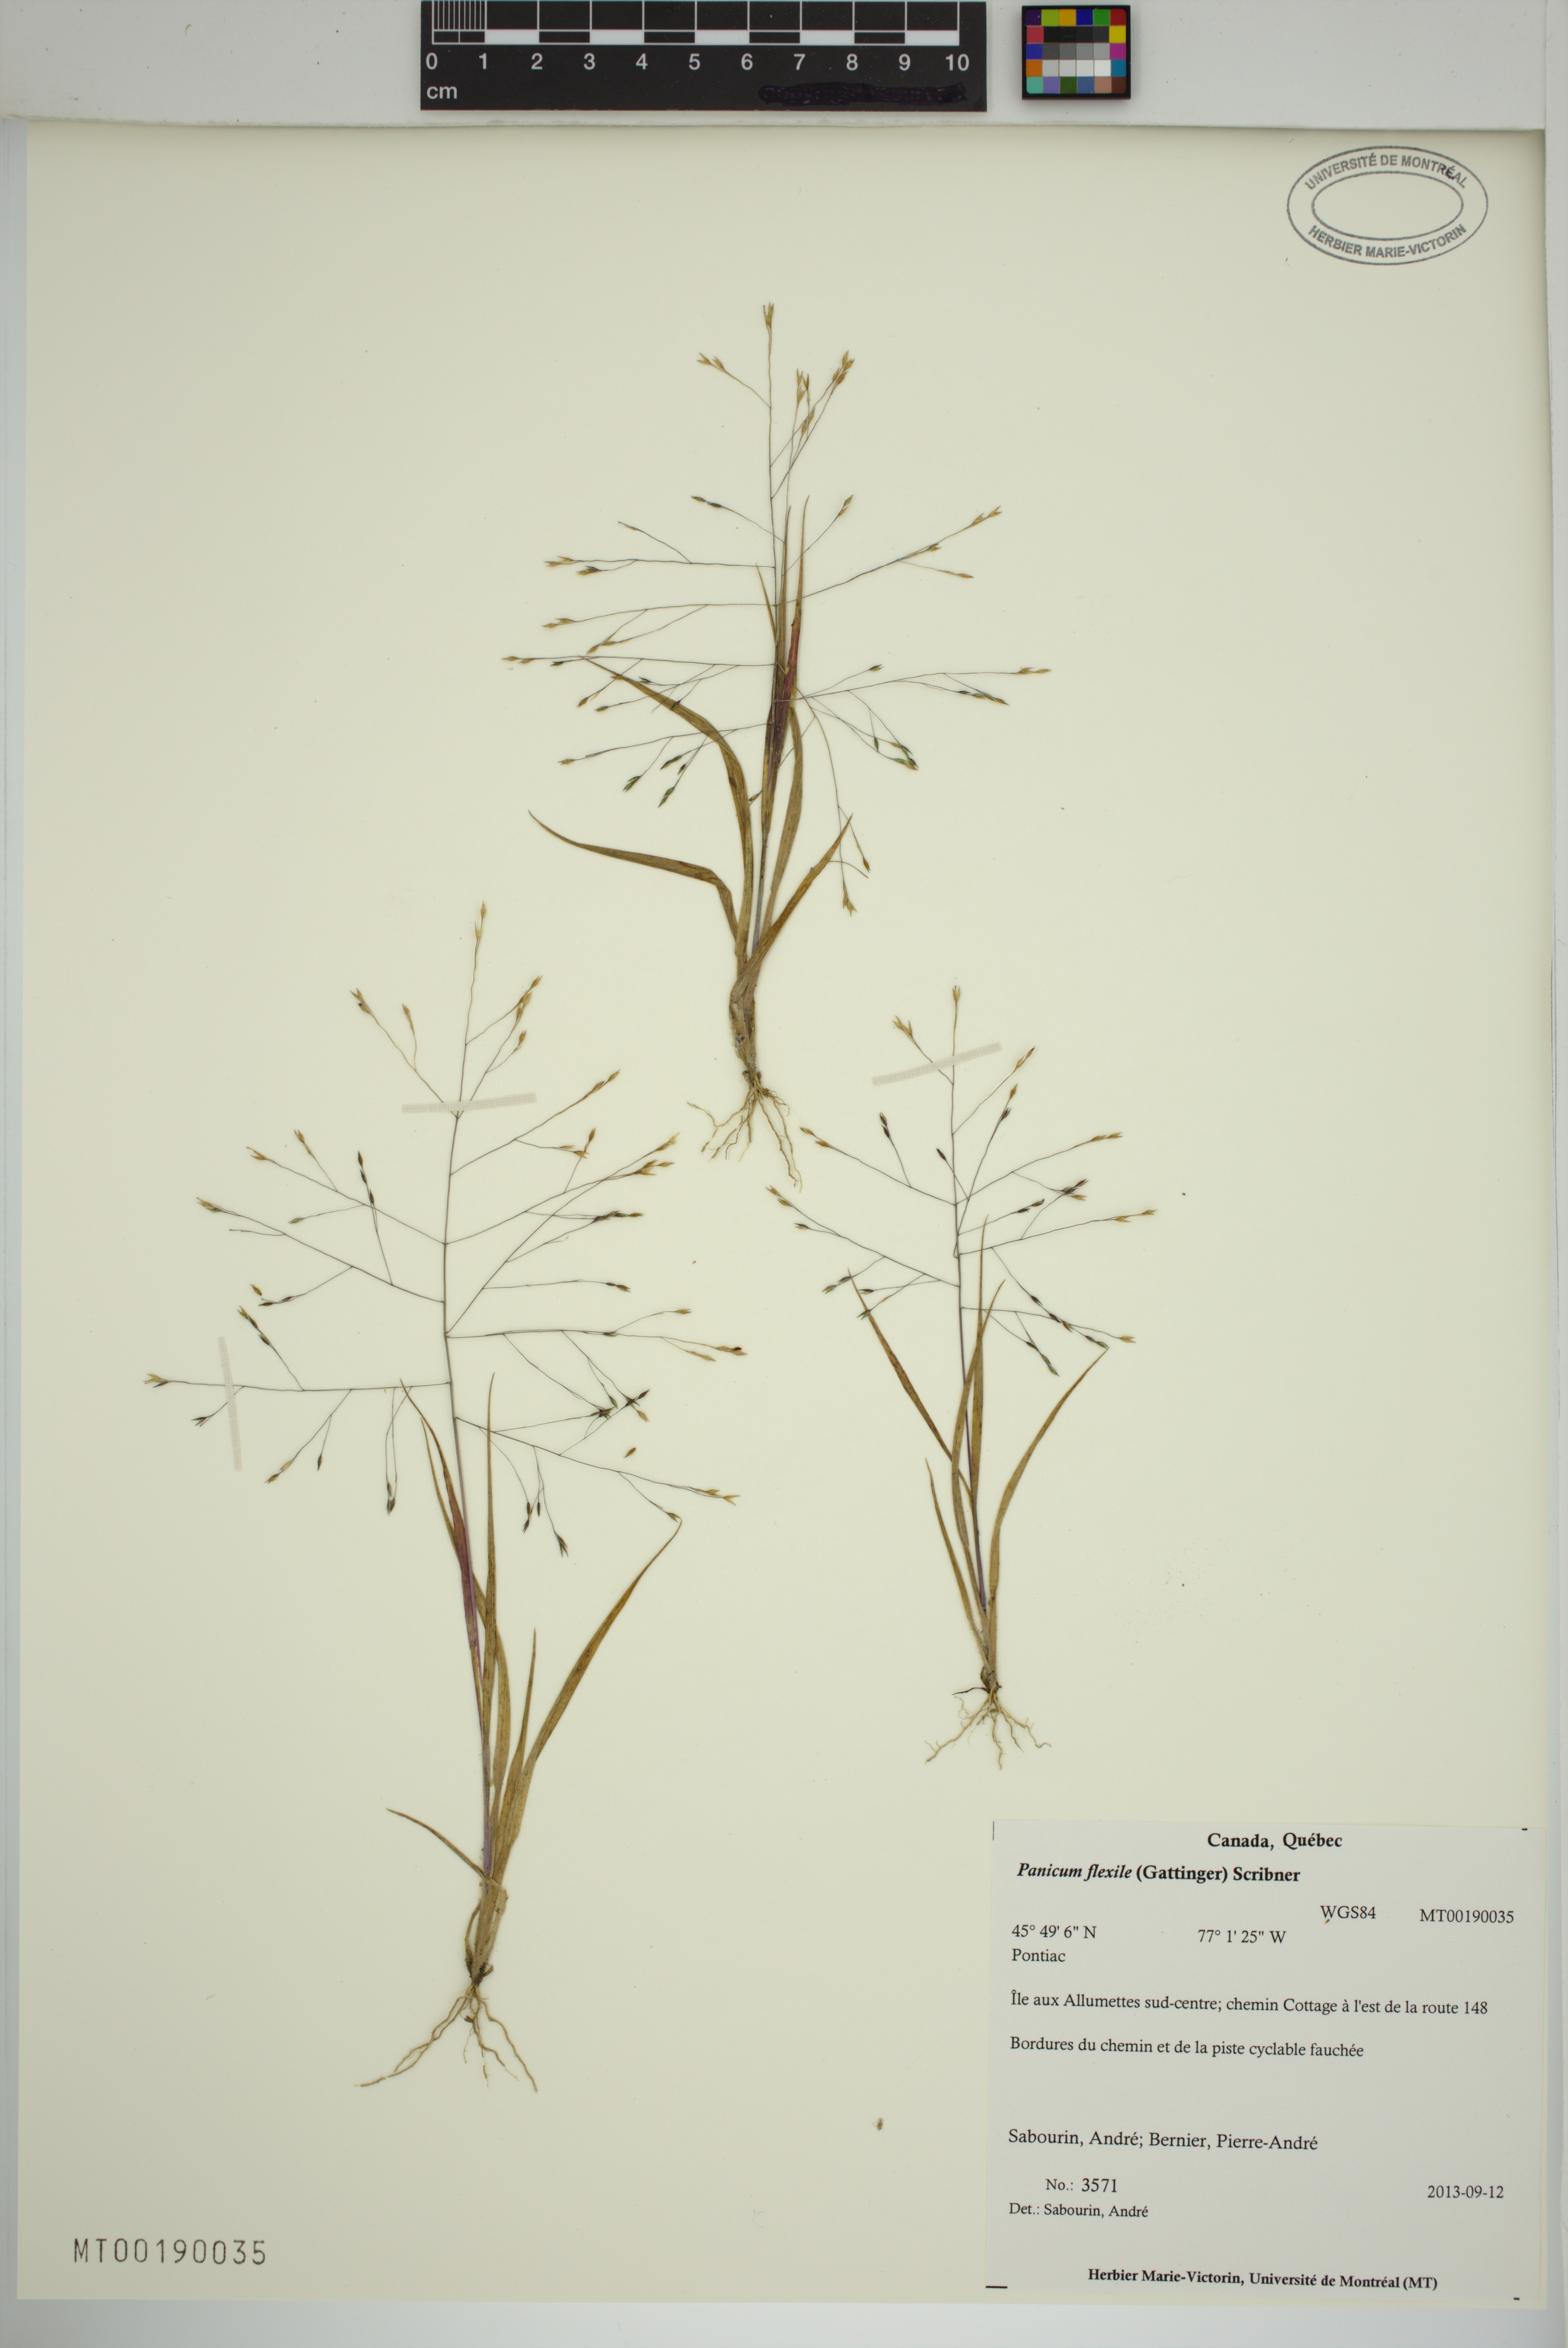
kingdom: Plantae
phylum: Tracheophyta
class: Liliopsida
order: Poales
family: Poaceae
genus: Panicum
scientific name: Panicum flexile
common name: Wiry panicgrass
